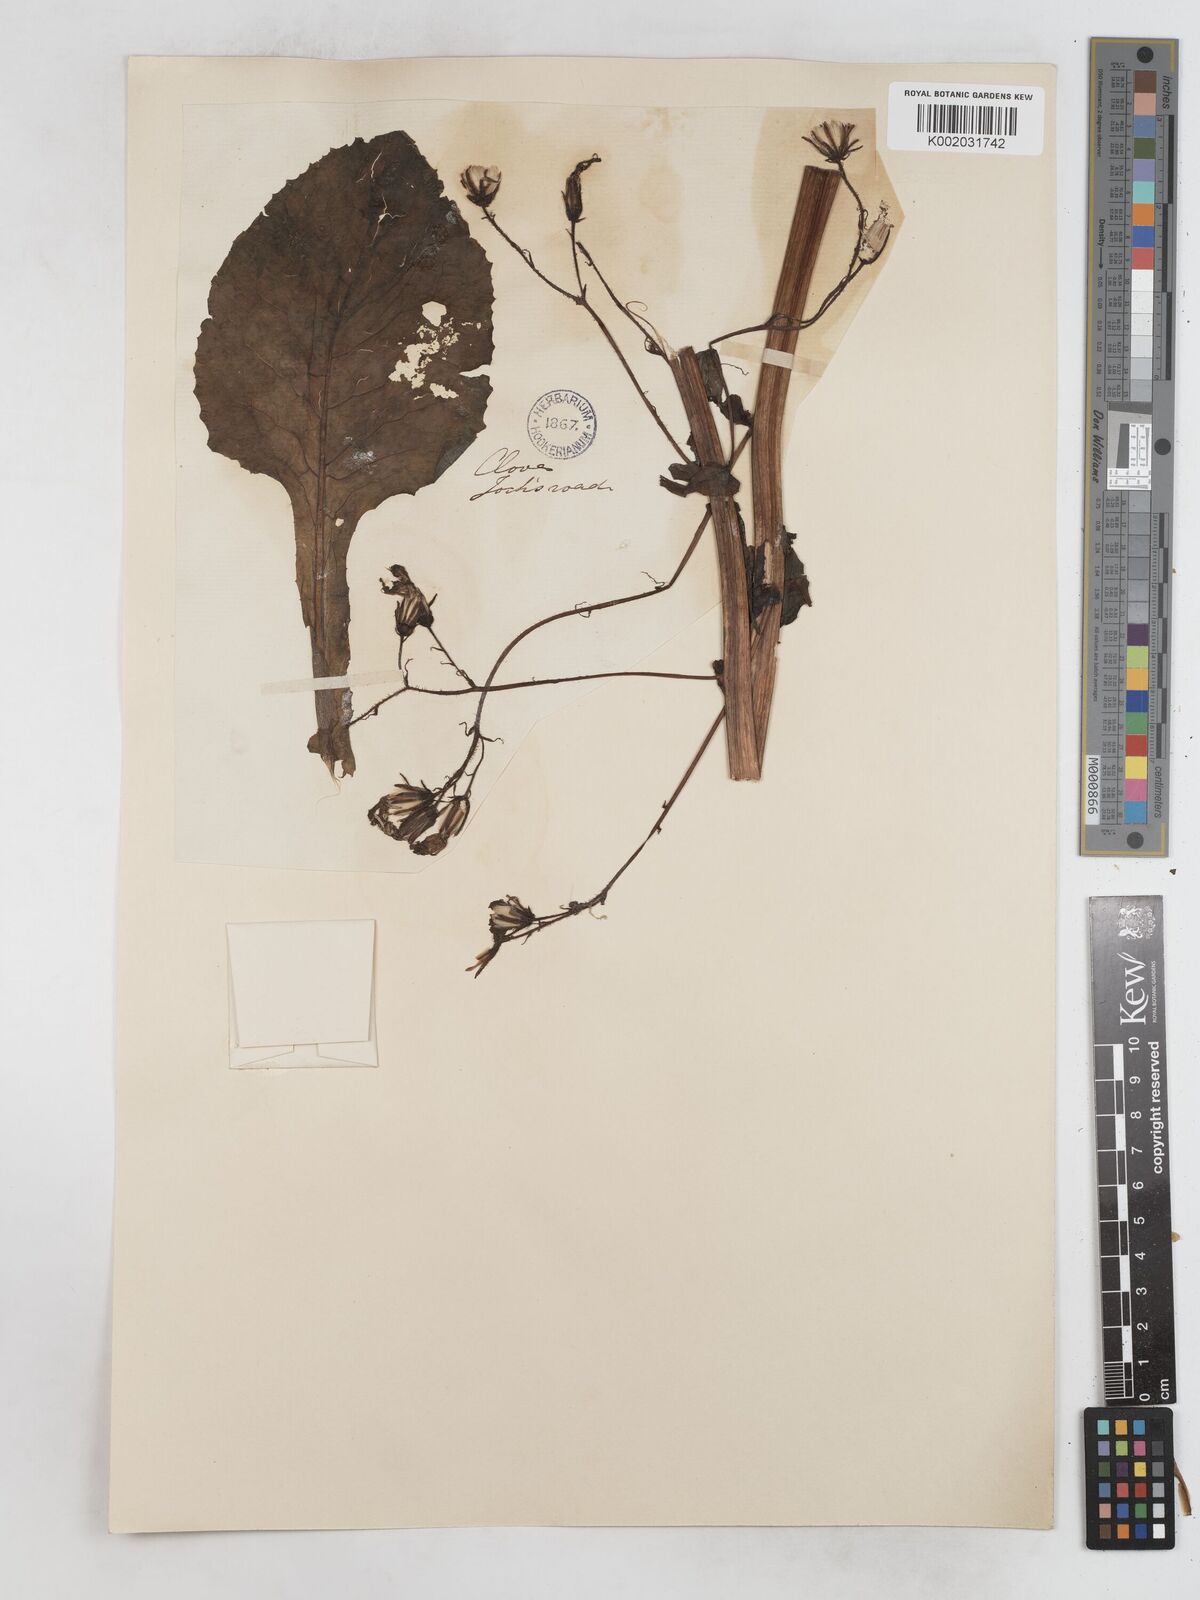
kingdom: Plantae
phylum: Tracheophyta
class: Magnoliopsida
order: Asterales
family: Asteraceae
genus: Cicerbita
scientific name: Cicerbita alpina
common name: Alpine blue-sow-thistle
